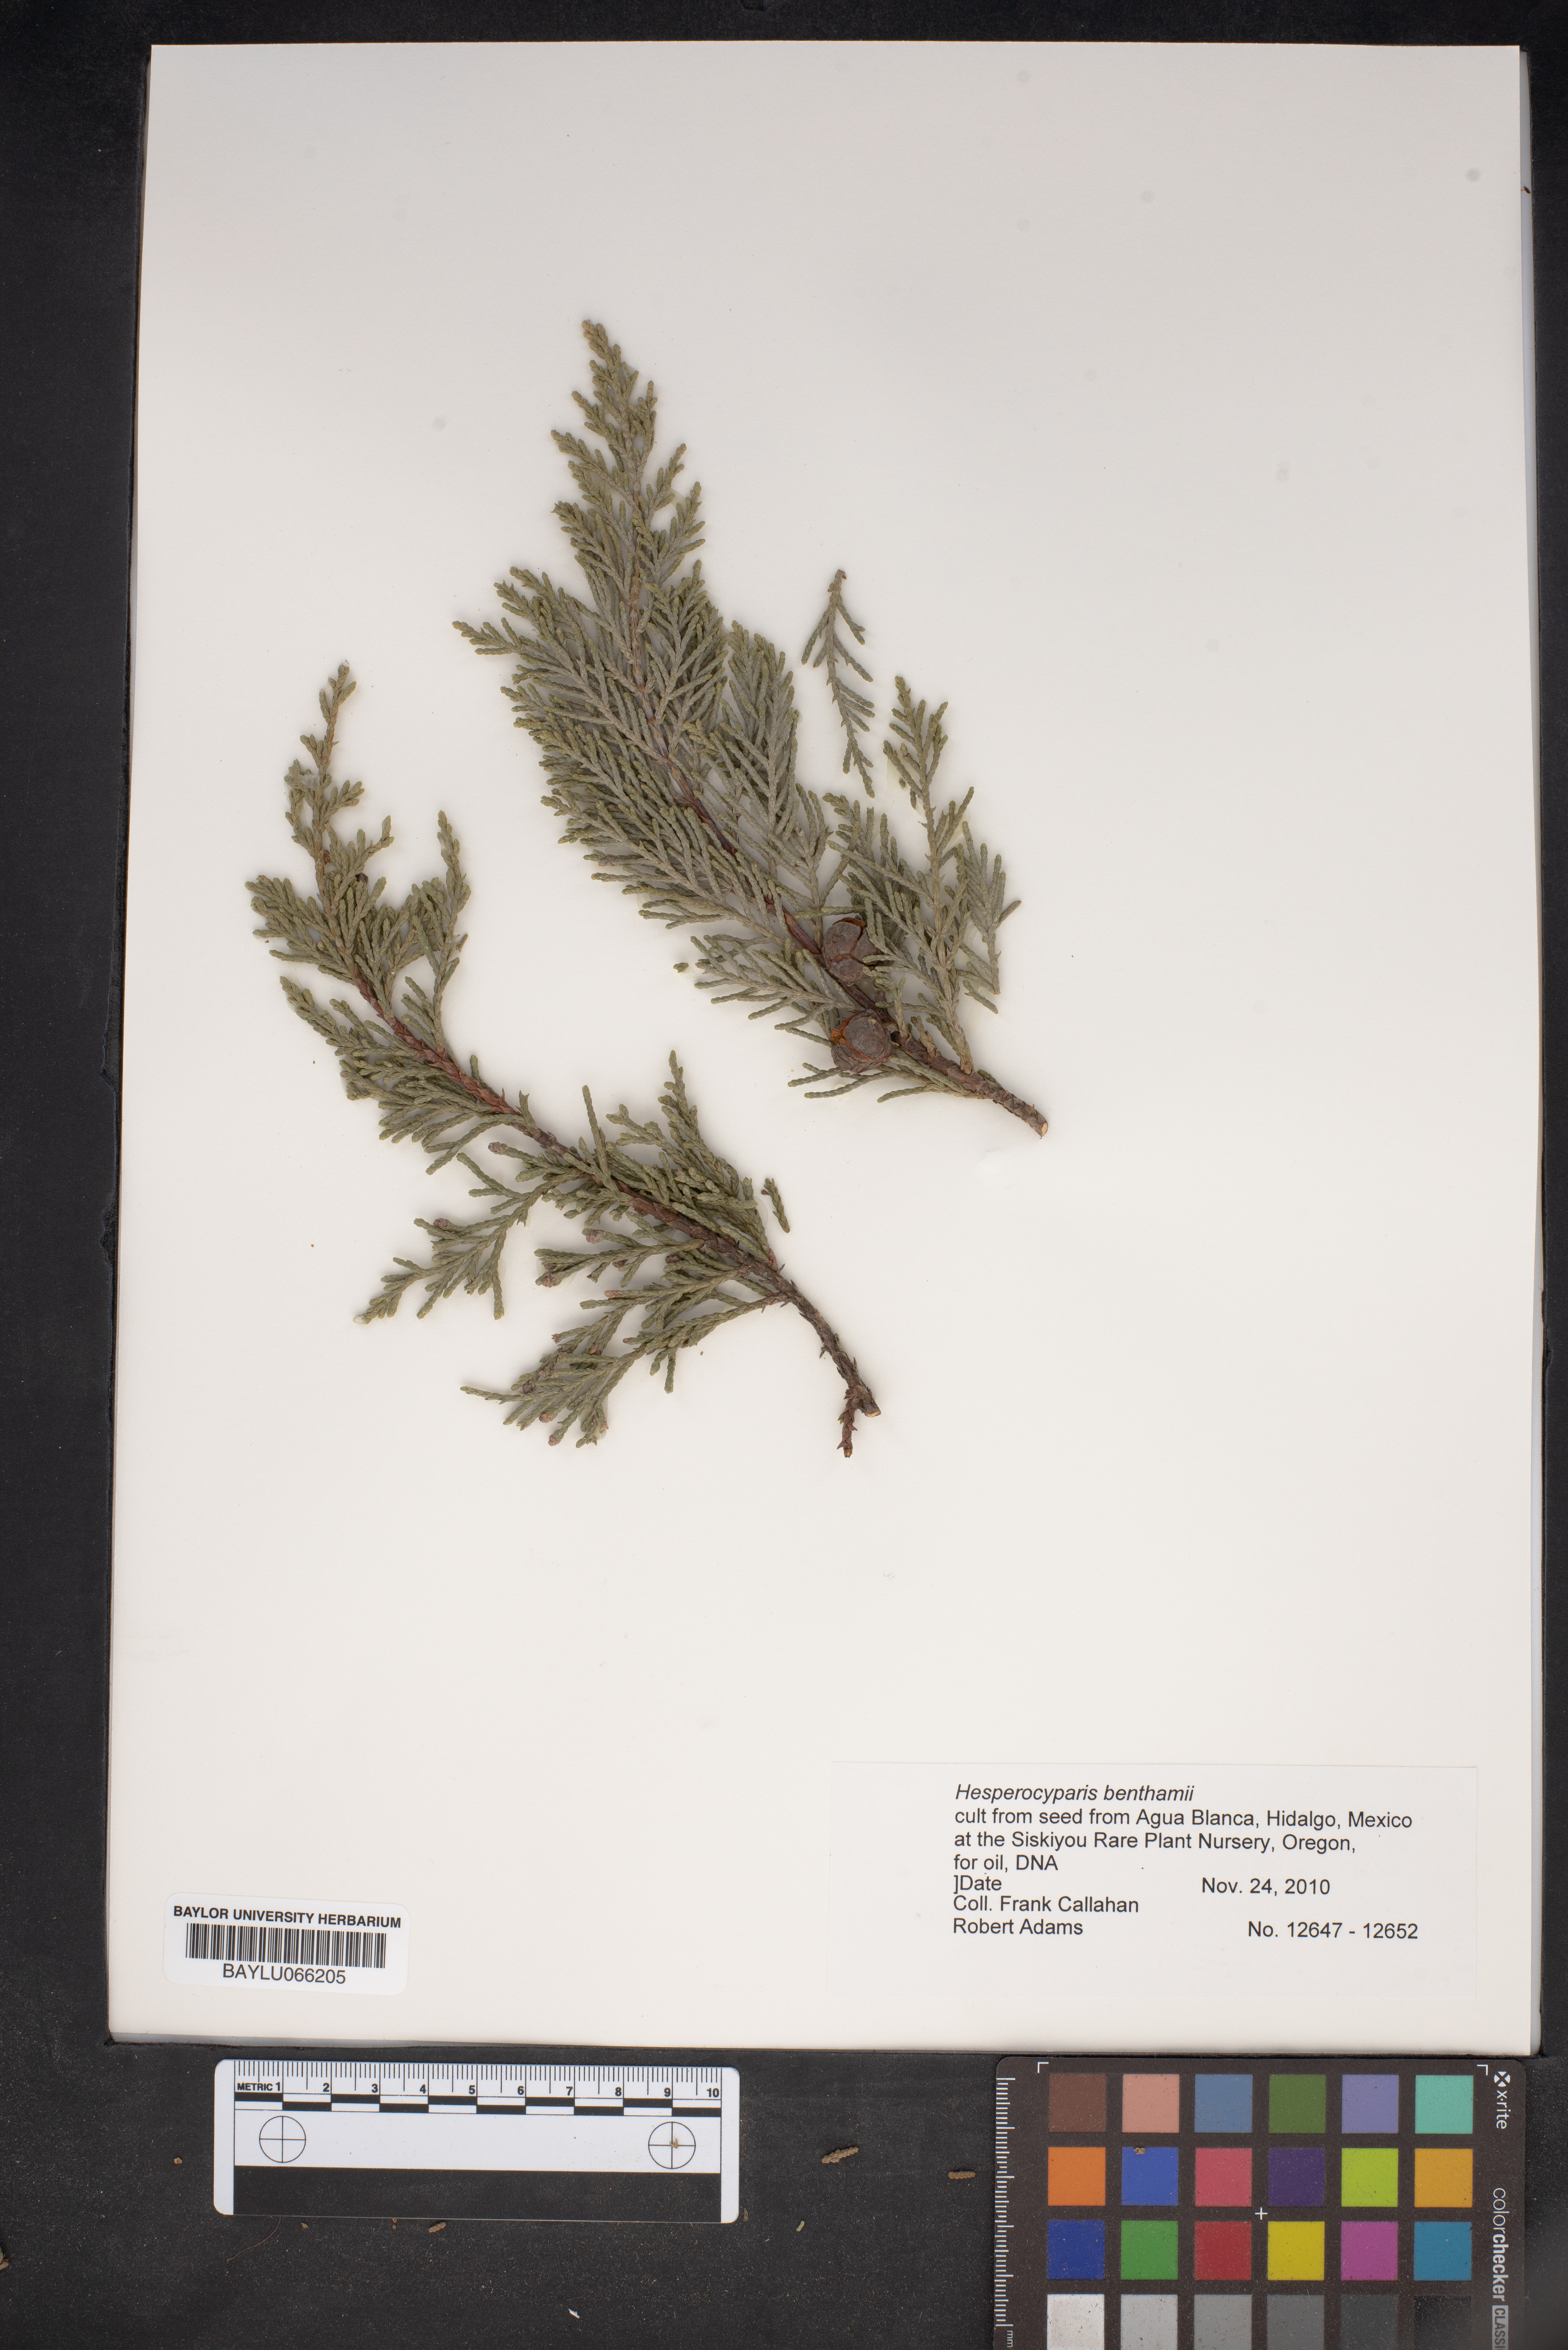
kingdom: Plantae
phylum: Tracheophyta
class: Pinopsida
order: Pinales
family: Cupressaceae
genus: Cupressus
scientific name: Cupressus lusitanica
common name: Mexican cypress
